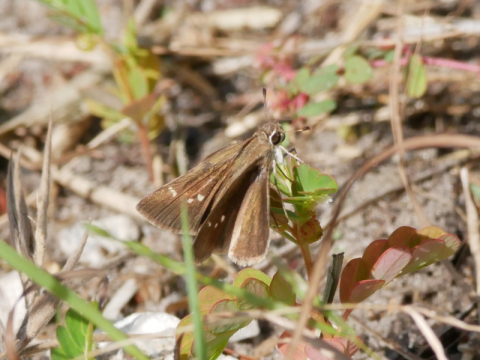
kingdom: Animalia
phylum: Arthropoda
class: Insecta
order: Lepidoptera
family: Hesperiidae
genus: Lerodea
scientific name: Lerodea eufala
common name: Eufala Skipper
